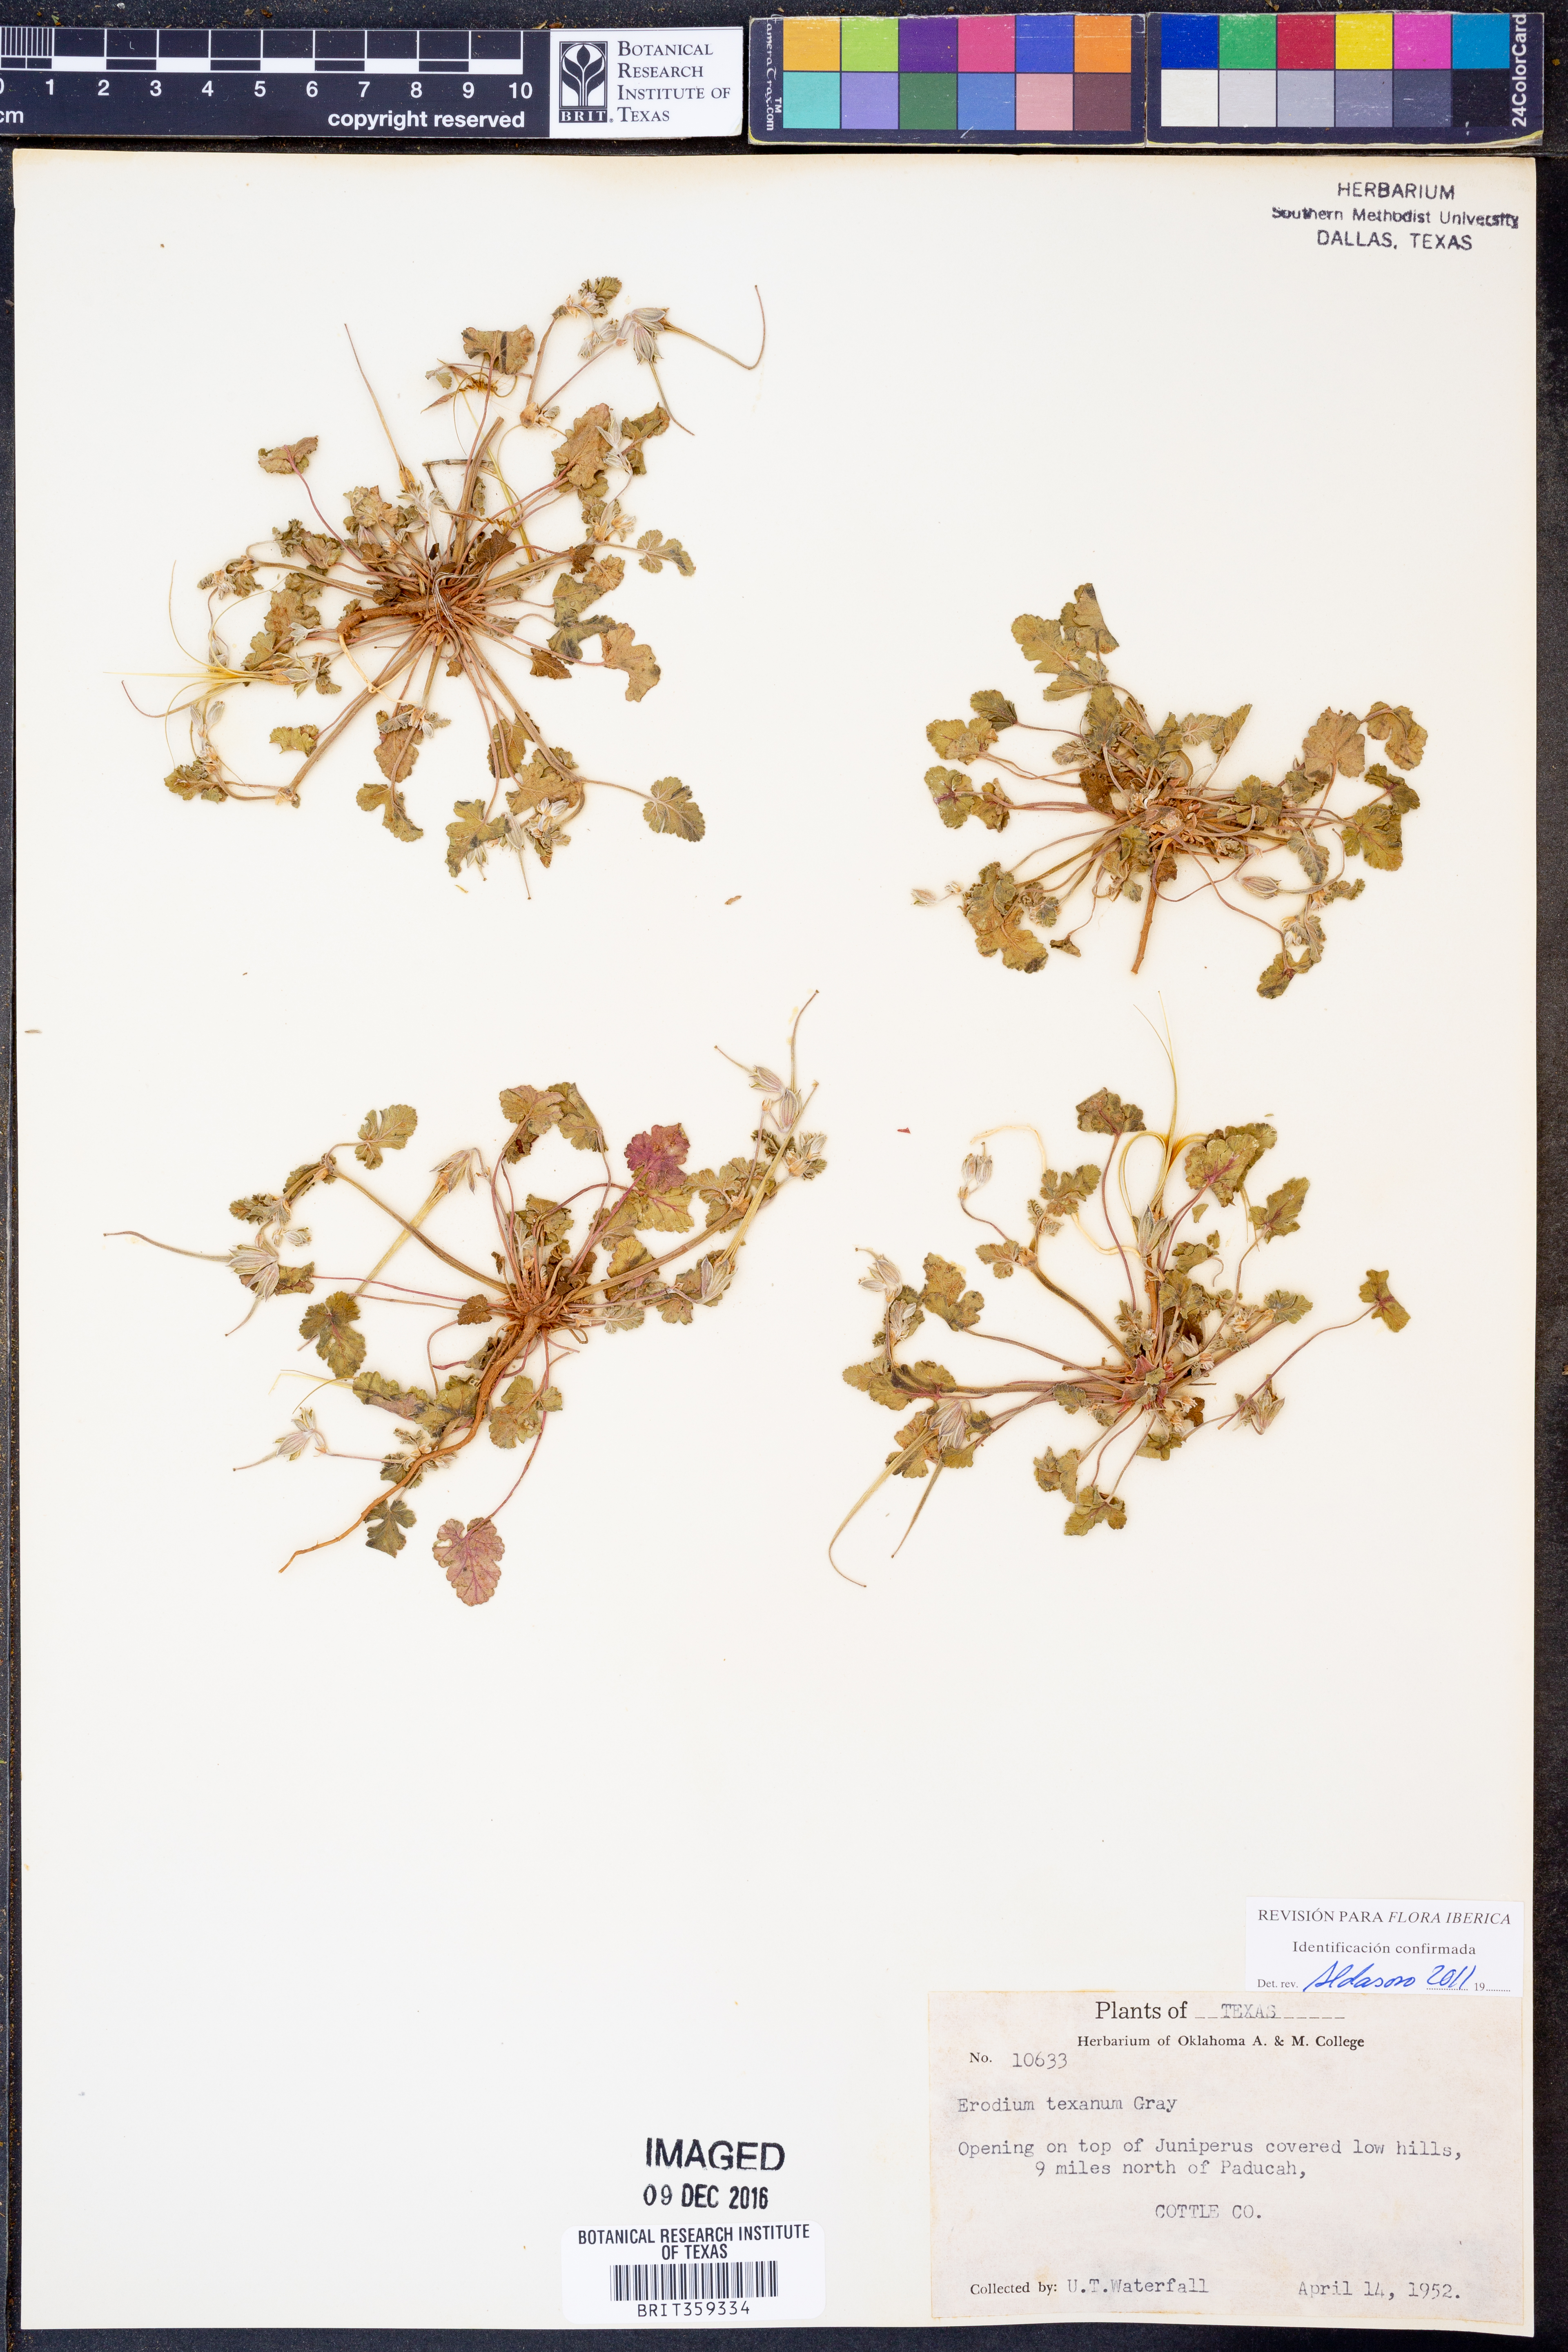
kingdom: Plantae
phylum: Tracheophyta
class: Magnoliopsida
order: Geraniales
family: Geraniaceae
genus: Erodium
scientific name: Erodium texanum
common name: Texas stork's-bill
